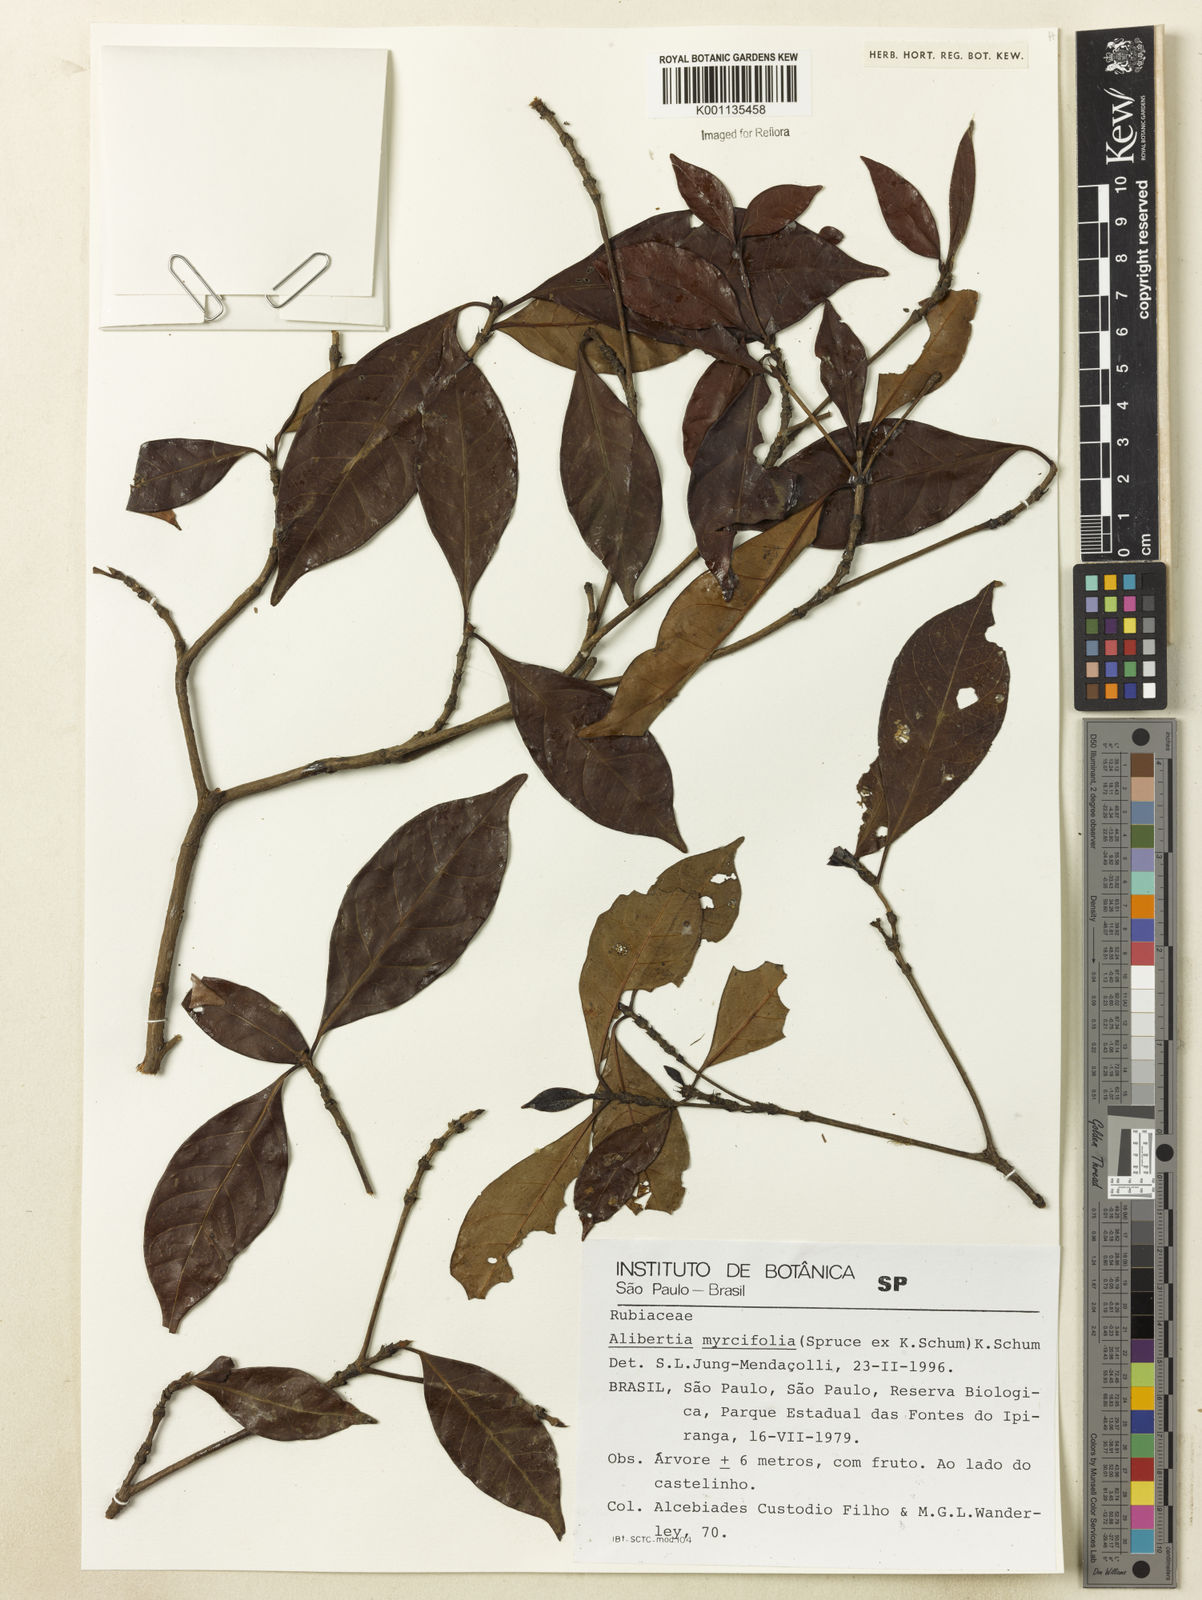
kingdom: Plantae
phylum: Tracheophyta
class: Magnoliopsida
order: Gentianales
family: Rubiaceae
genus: Cordiera
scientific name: Cordiera myrciifolia
